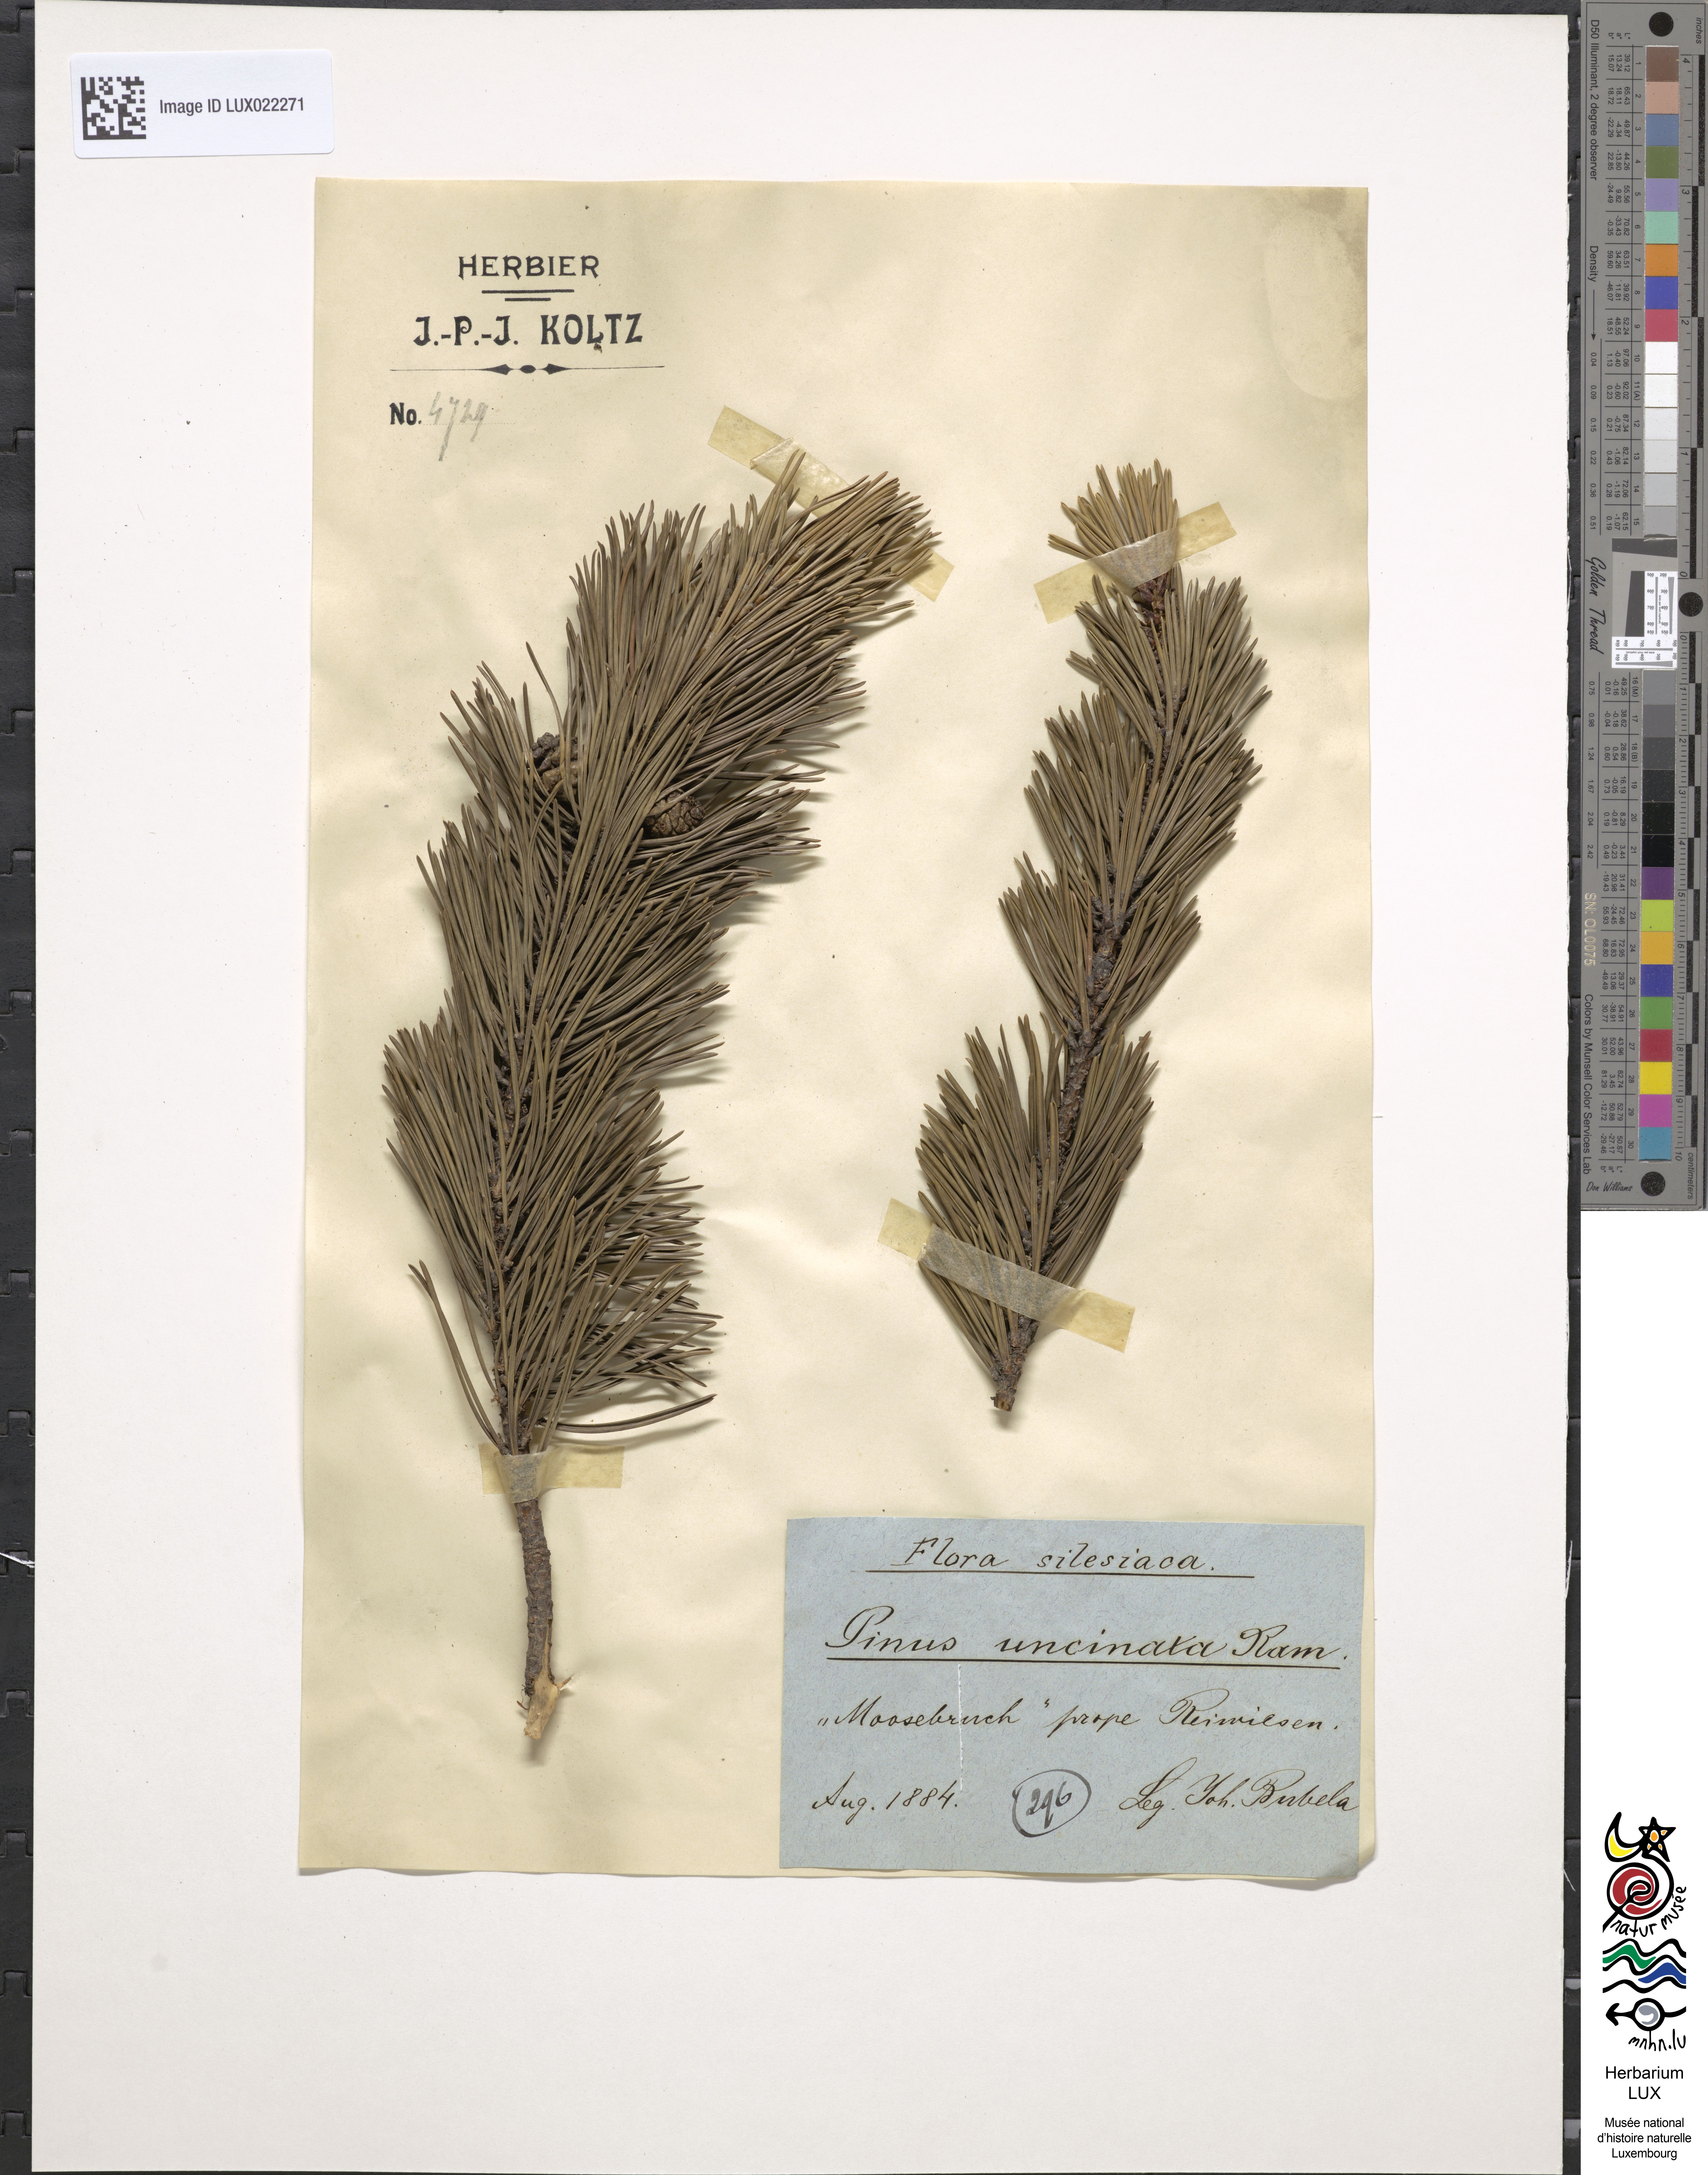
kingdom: Plantae
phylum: Tracheophyta
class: Pinopsida
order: Pinales
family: Pinaceae
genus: Pinus
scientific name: Pinus uncinata
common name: Mountain pine
